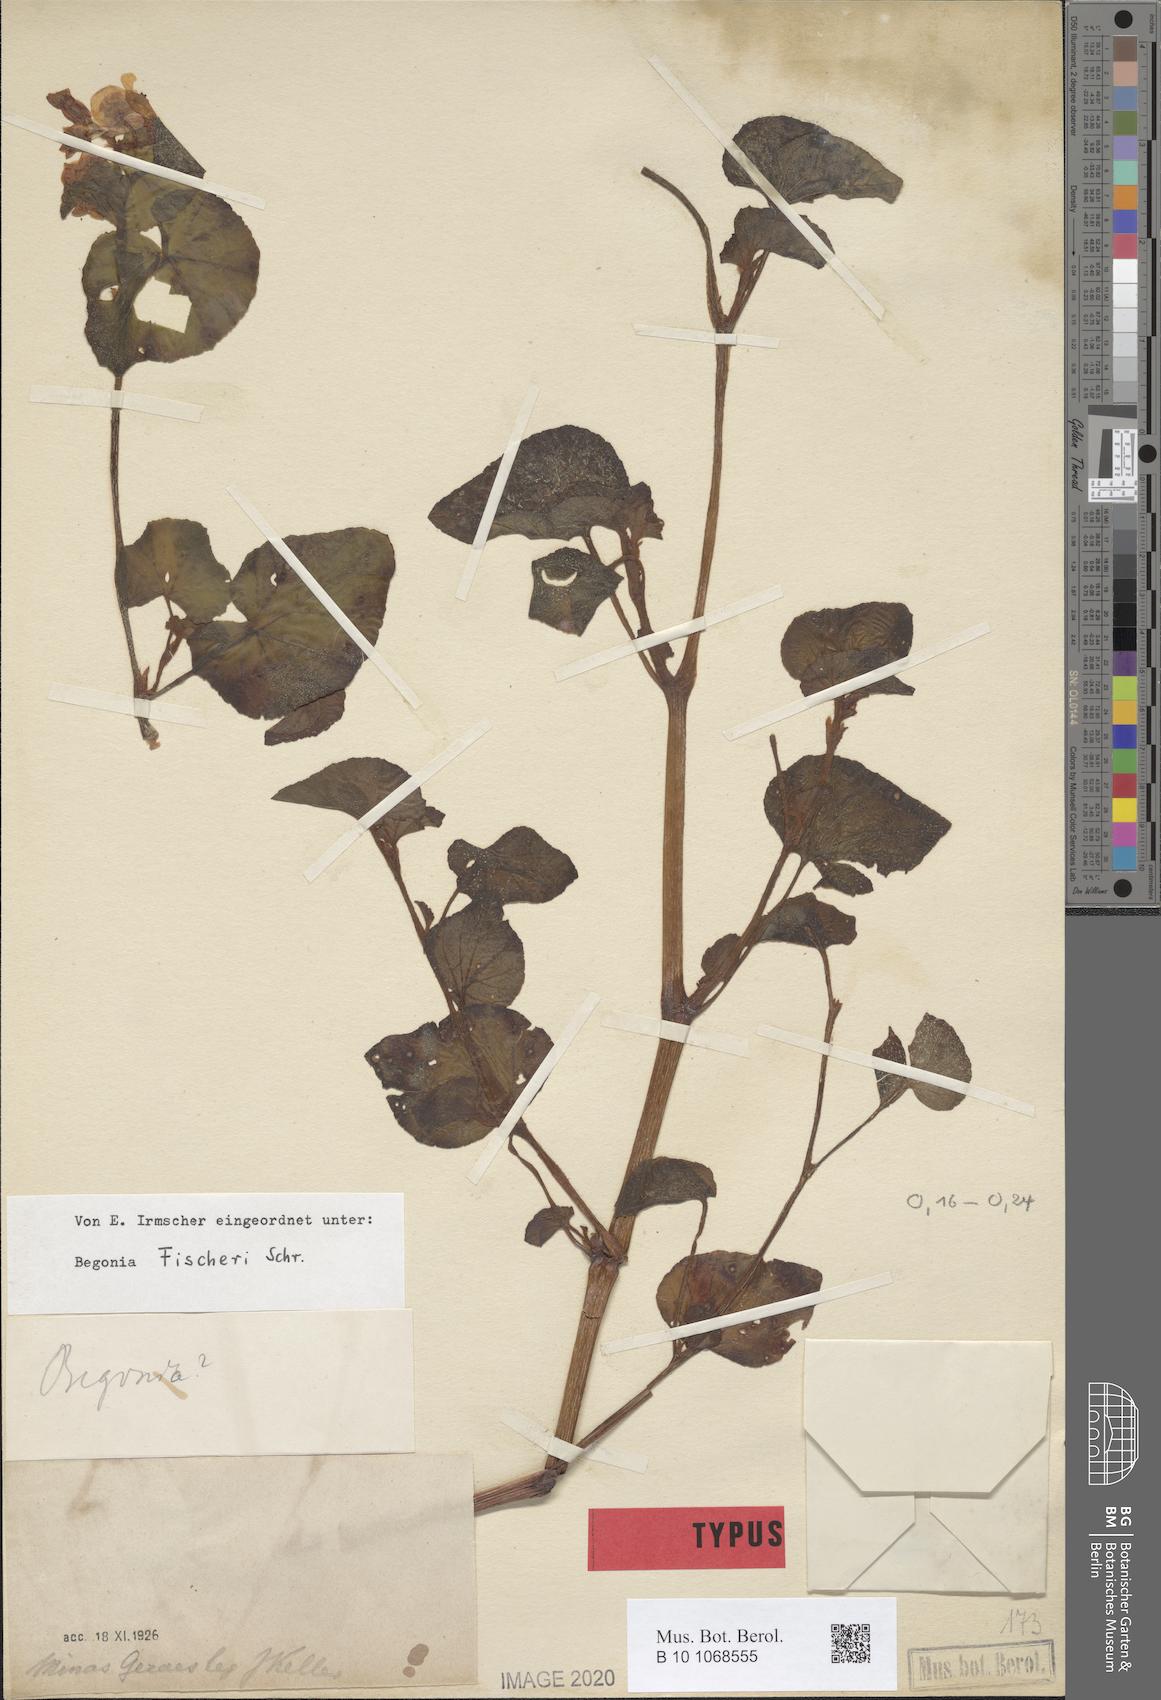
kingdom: Plantae
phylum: Tracheophyta
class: Magnoliopsida
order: Cucurbitales
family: Begoniaceae
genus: Begonia
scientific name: Begonia fischeri
